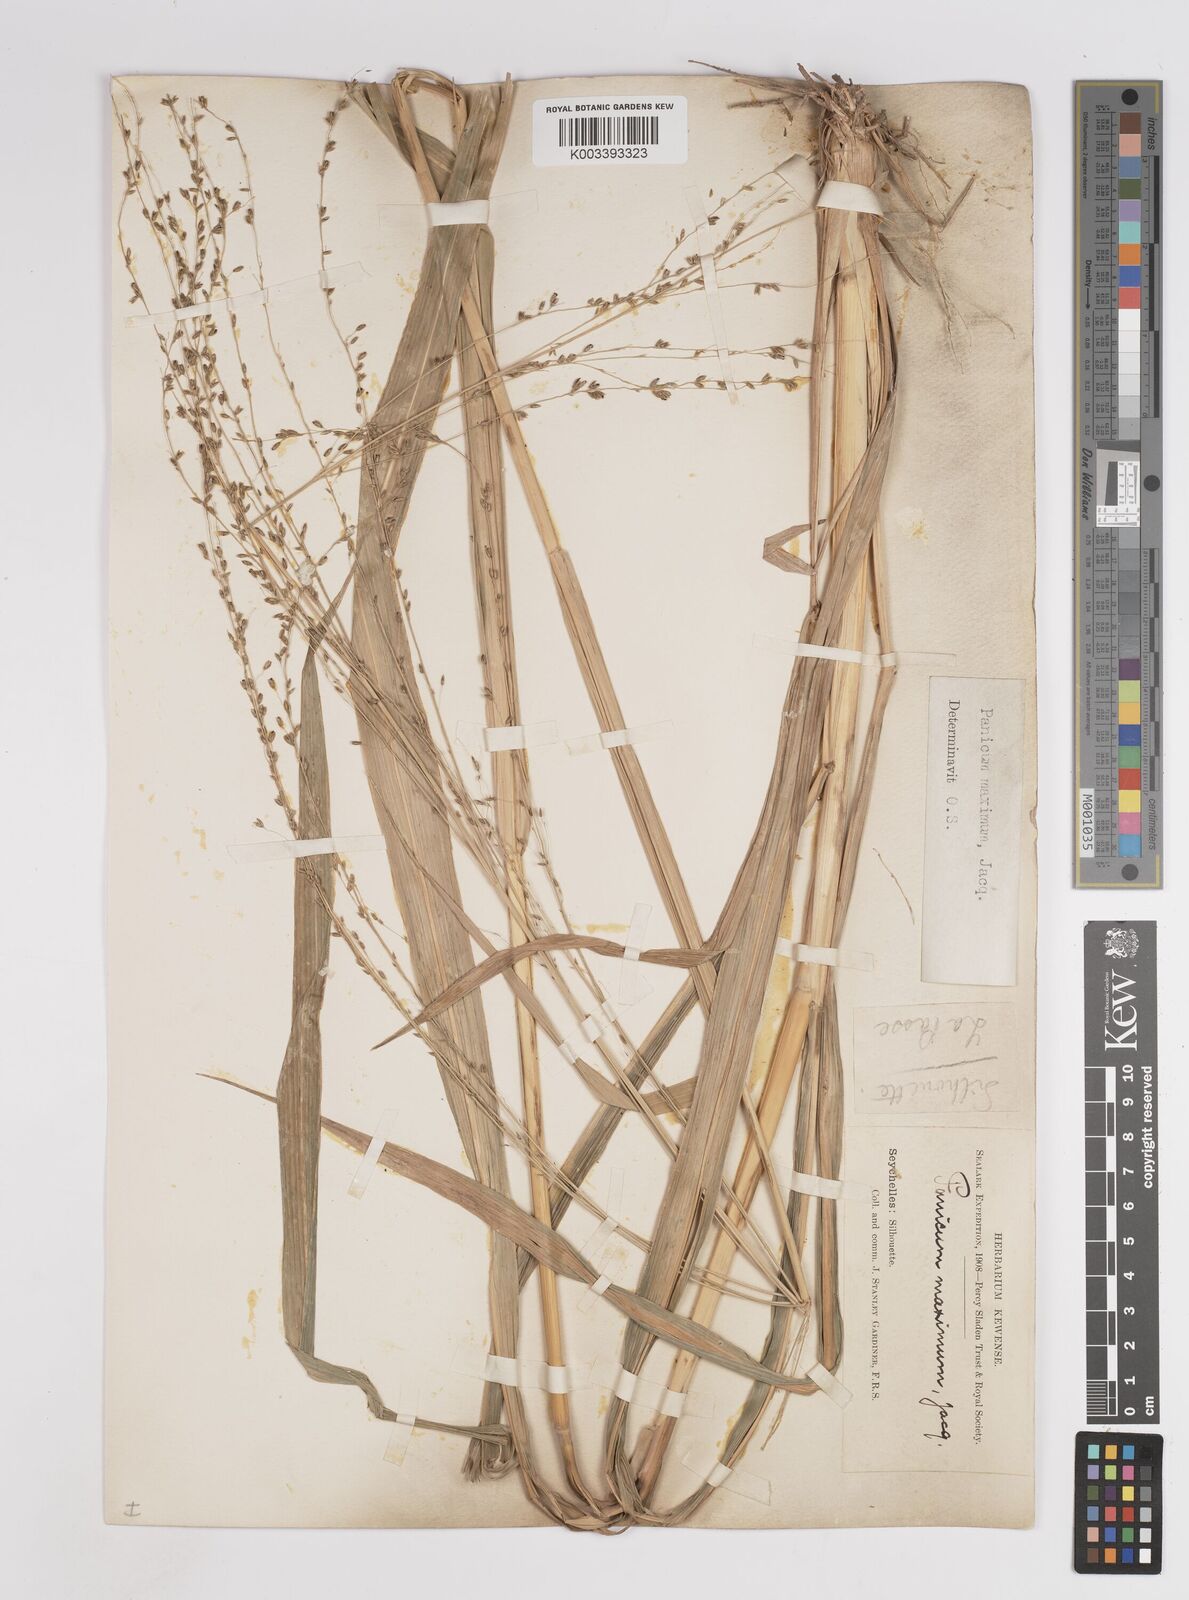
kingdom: Plantae
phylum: Tracheophyta
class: Liliopsida
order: Poales
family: Poaceae
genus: Megathyrsus
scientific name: Megathyrsus maximus
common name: Guineagrass
